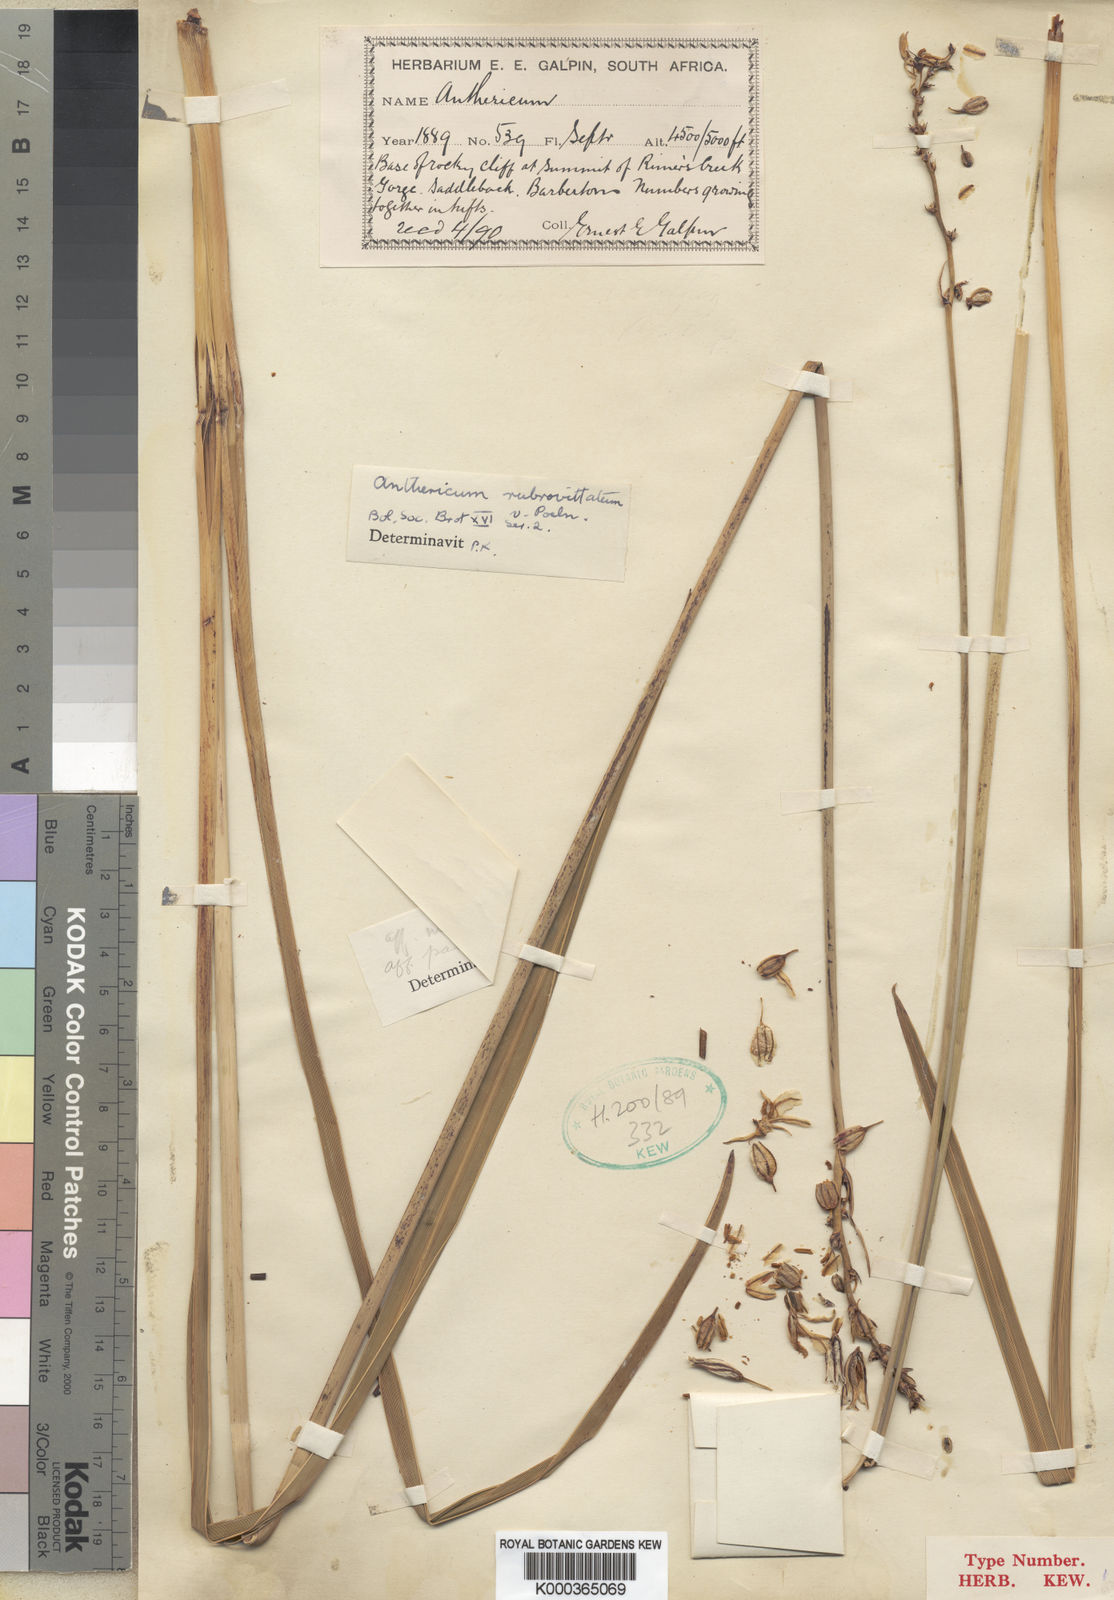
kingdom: Plantae
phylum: Tracheophyta
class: Liliopsida
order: Asparagales
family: Asparagaceae
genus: Chlorophytum
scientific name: Chlorophytum angulicaule
